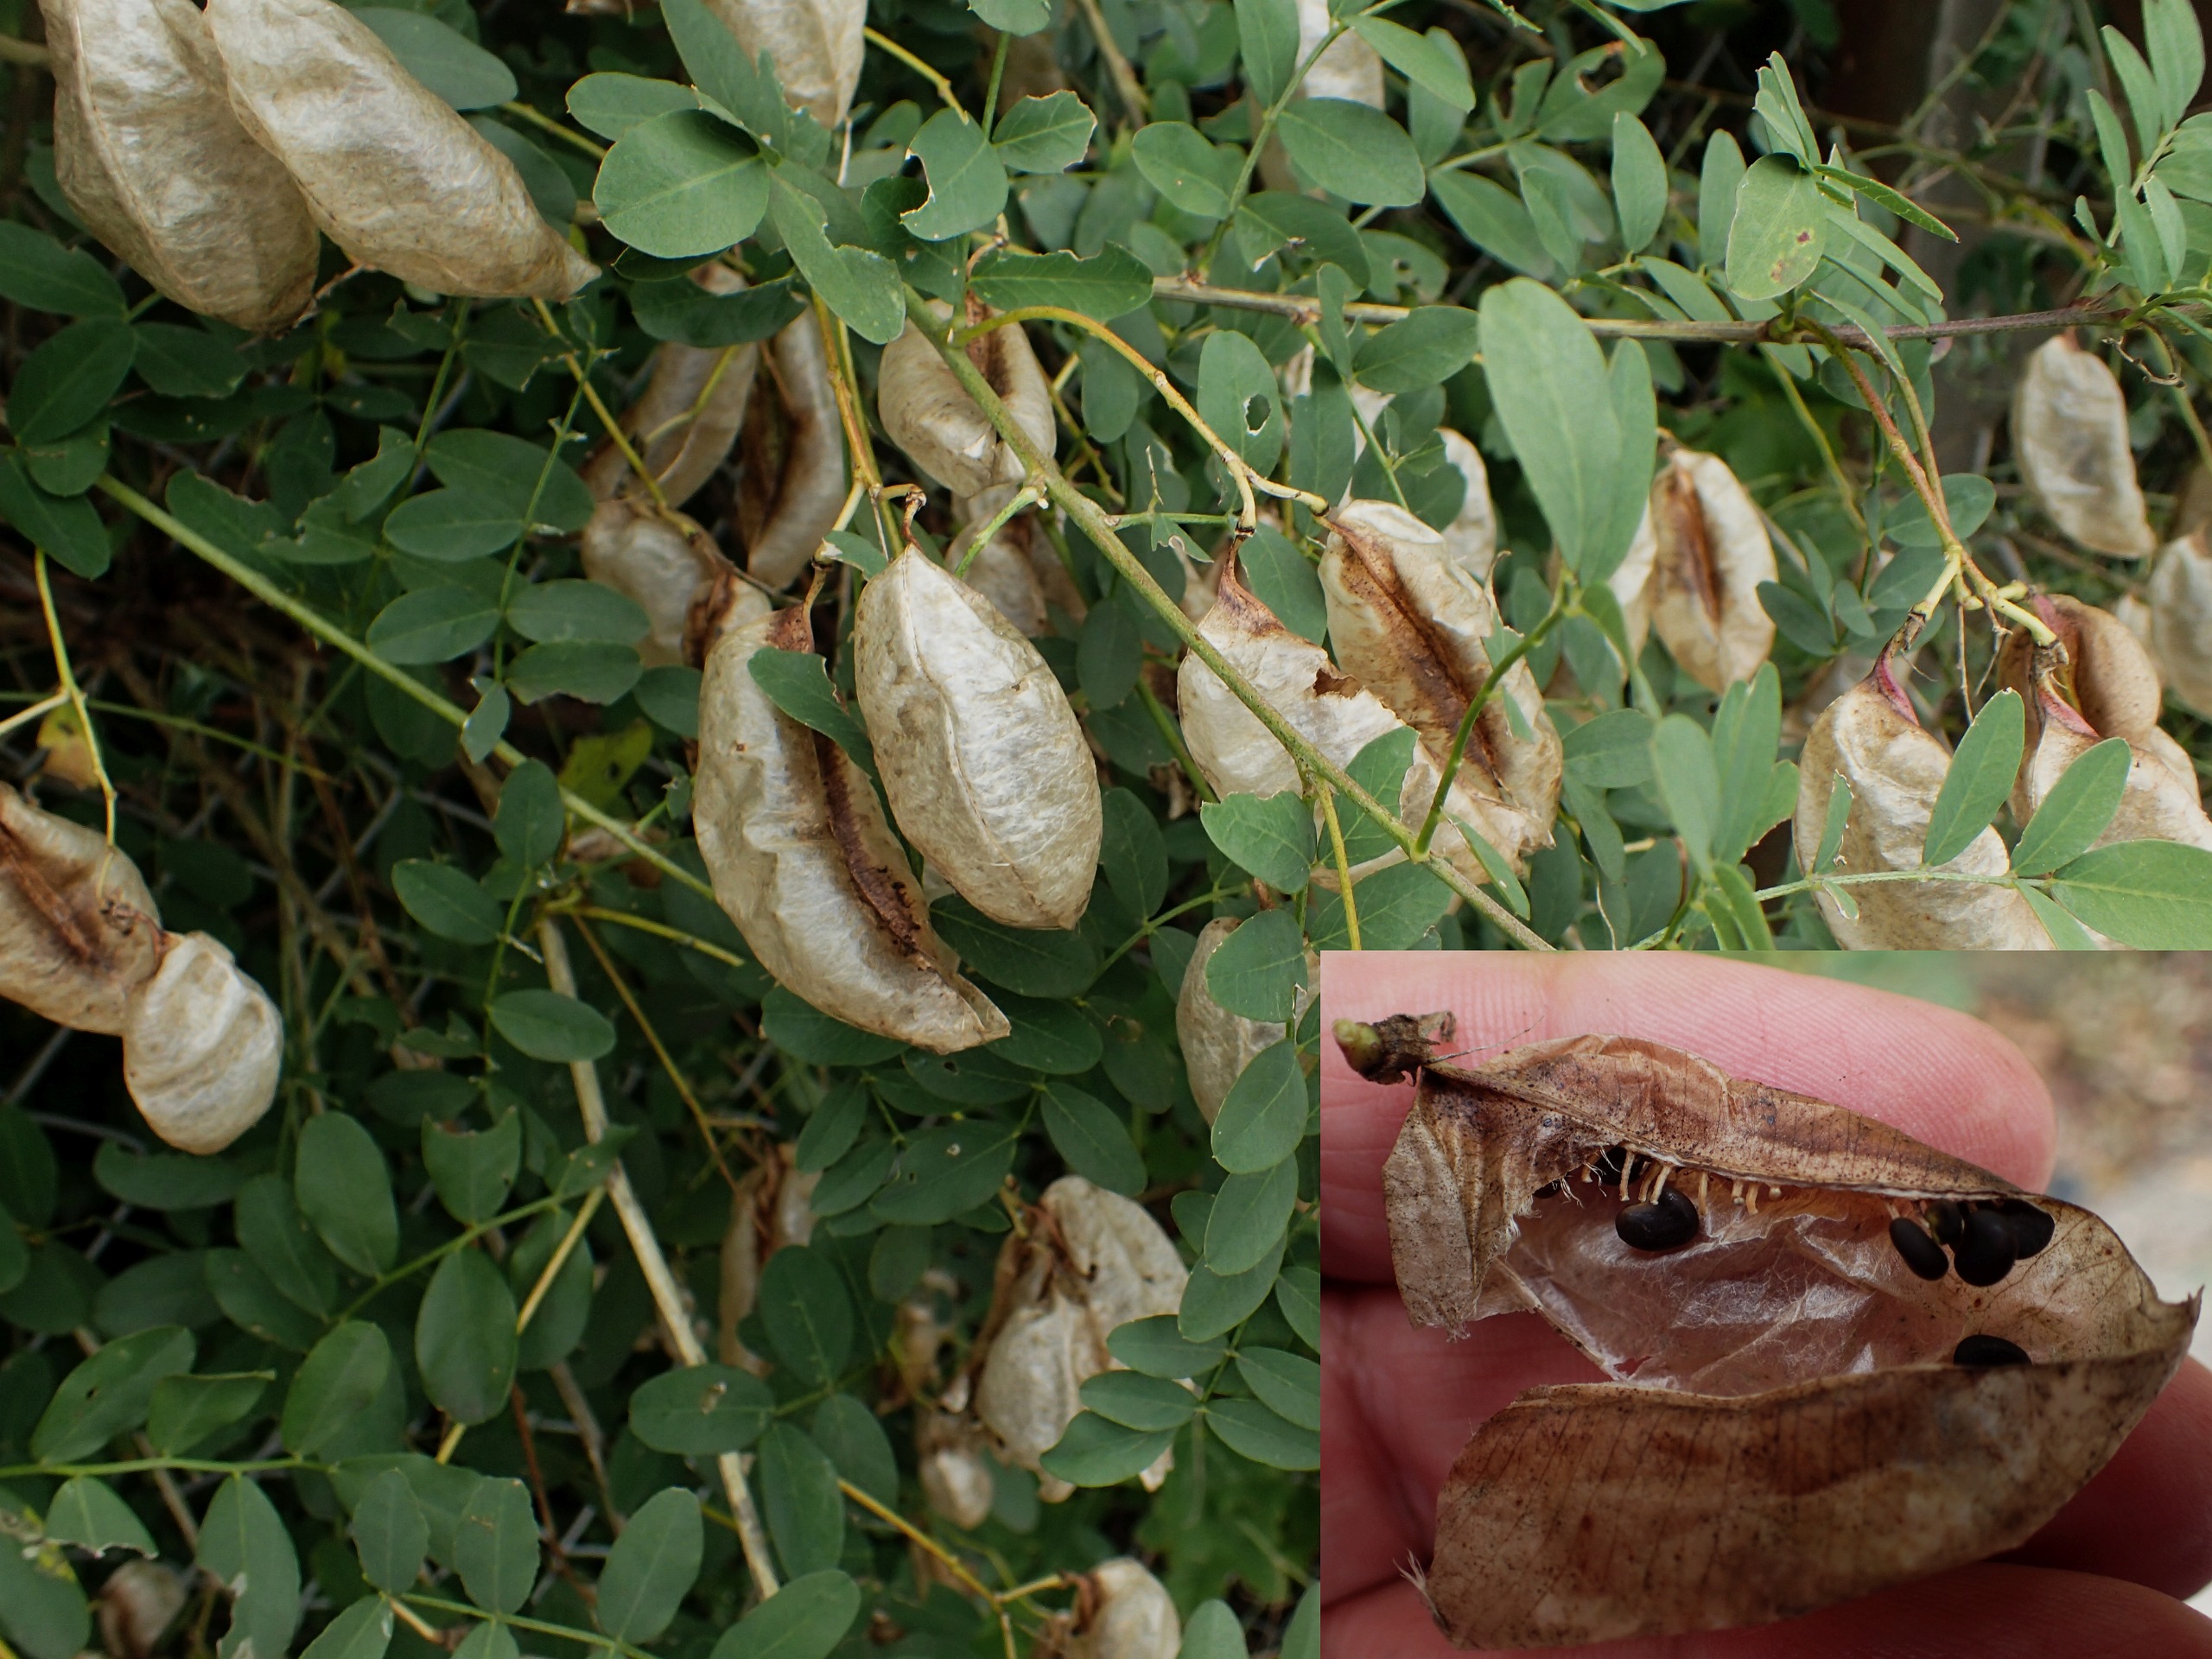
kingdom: Plantae
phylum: Tracheophyta
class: Magnoliopsida
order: Fabales
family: Fabaceae
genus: Colutea
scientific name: Colutea arborescens
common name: Almindelig blærebælg
